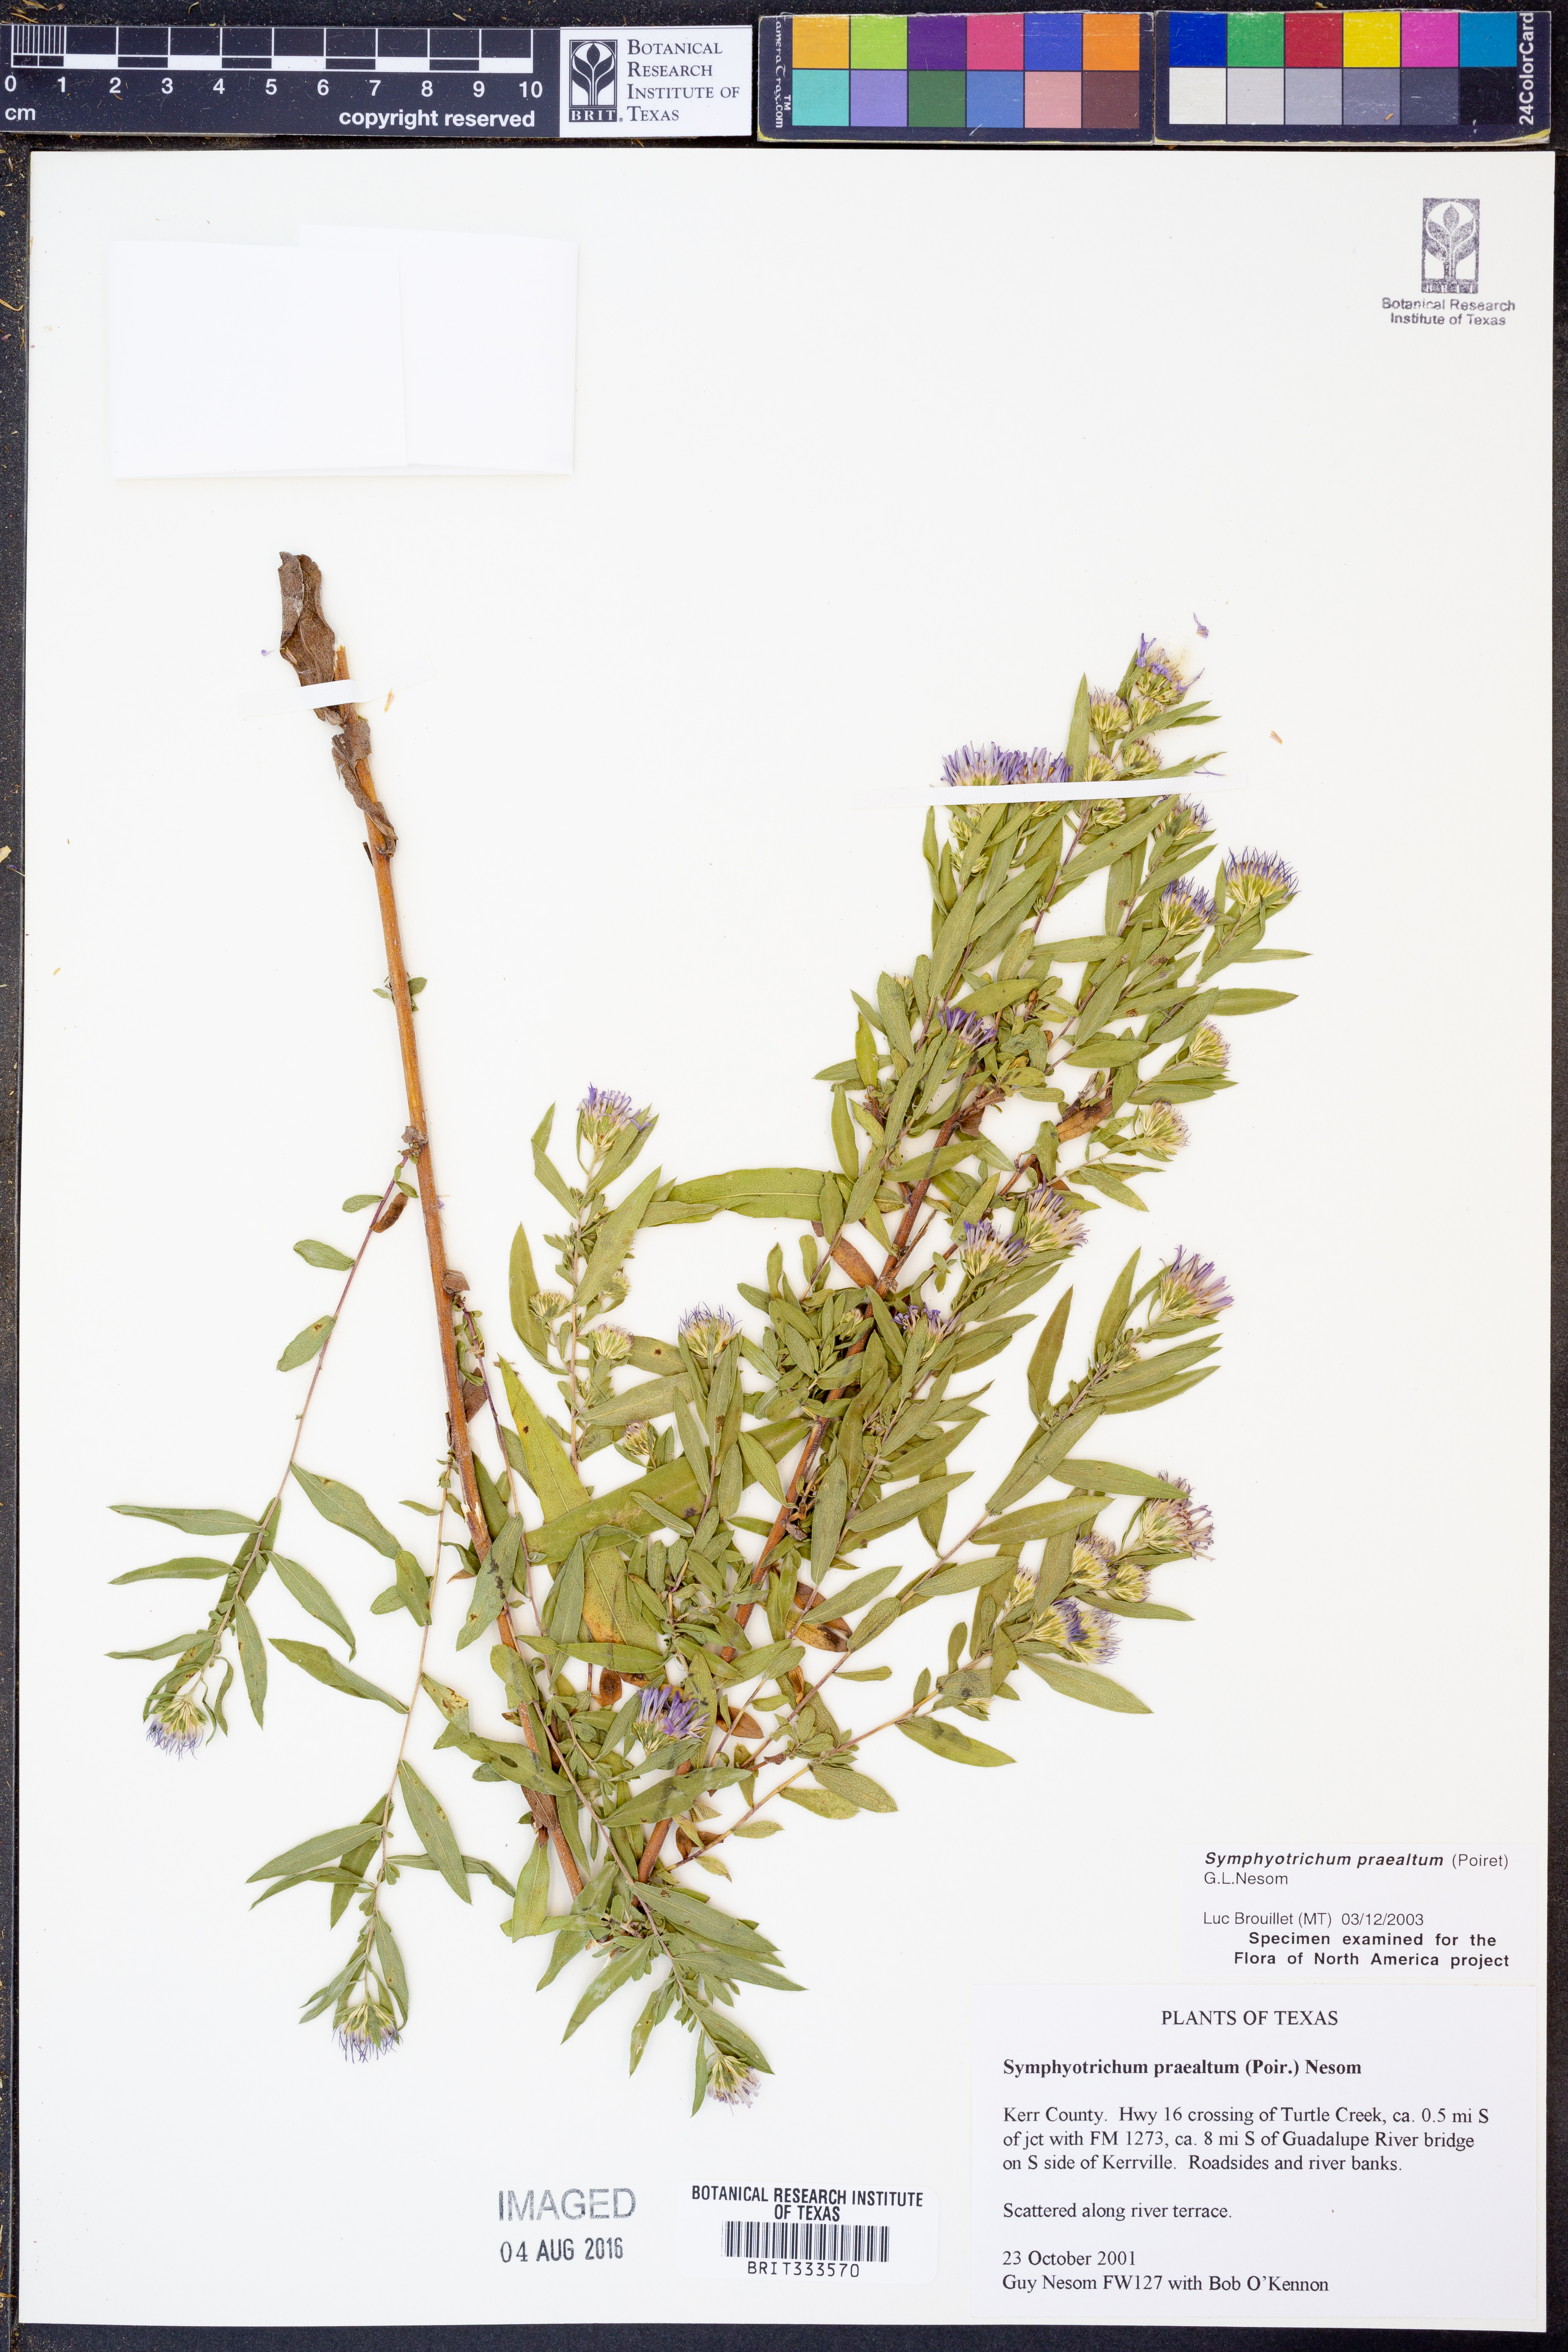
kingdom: Plantae
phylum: Tracheophyta
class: Magnoliopsida
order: Asterales
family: Asteraceae
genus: Symphyotrichum
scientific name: Symphyotrichum praealtum
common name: Willow aster
